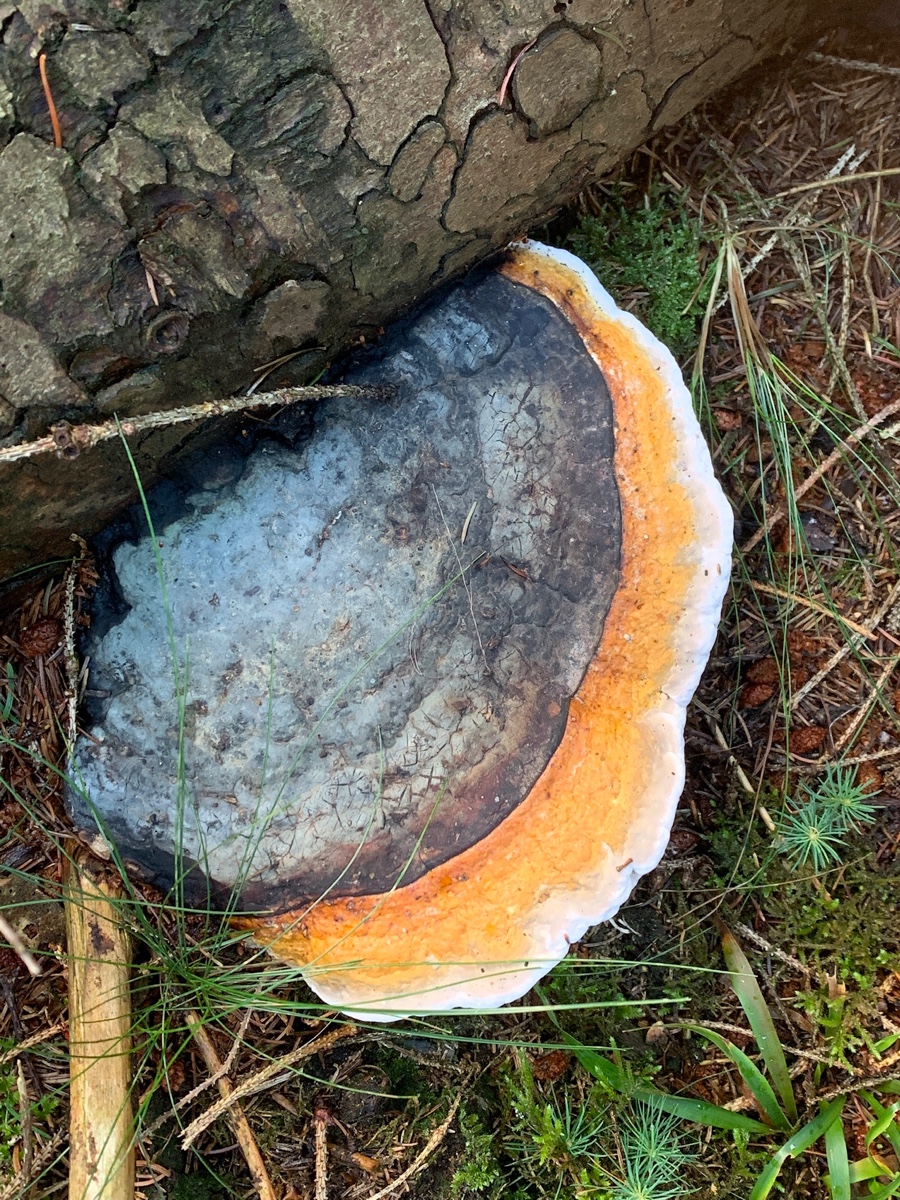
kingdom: Fungi
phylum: Basidiomycota
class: Agaricomycetes
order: Polyporales
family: Fomitopsidaceae
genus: Fomitopsis
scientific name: Fomitopsis pinicola
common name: randbæltet hovporesvamp
